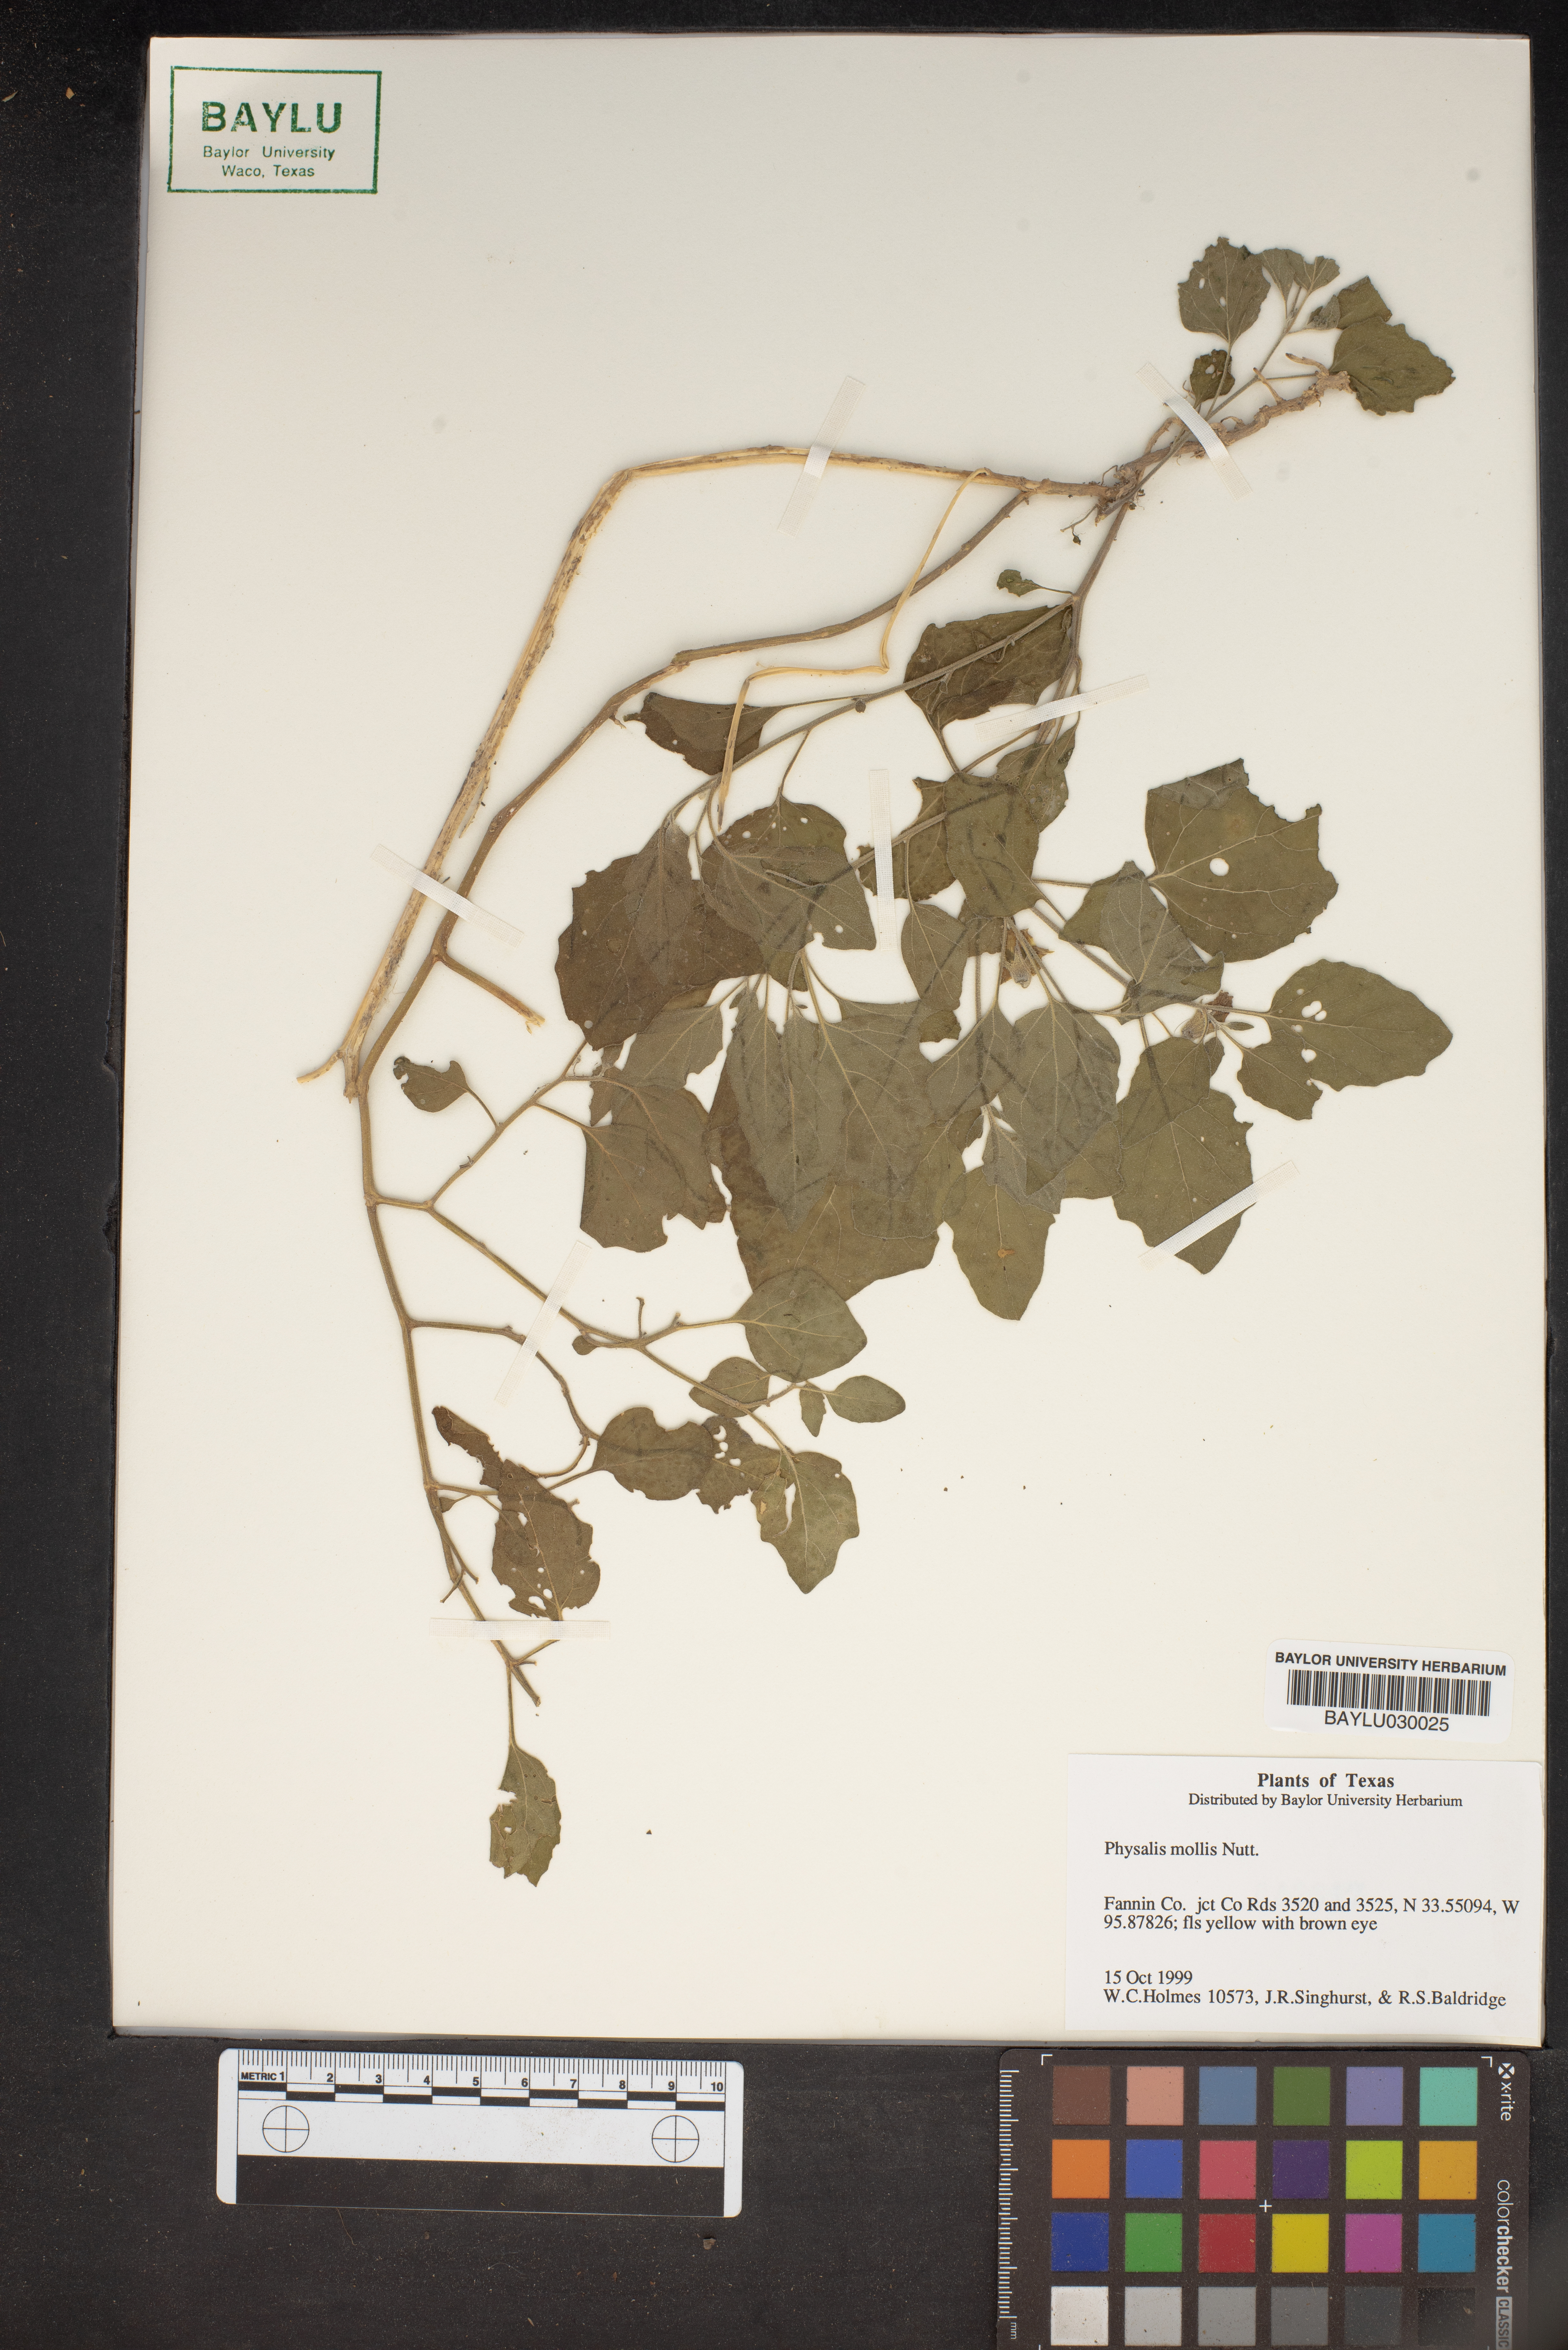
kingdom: Plantae
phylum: Tracheophyta
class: Magnoliopsida
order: Solanales
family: Solanaceae
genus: Physalis
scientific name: Physalis mollis
